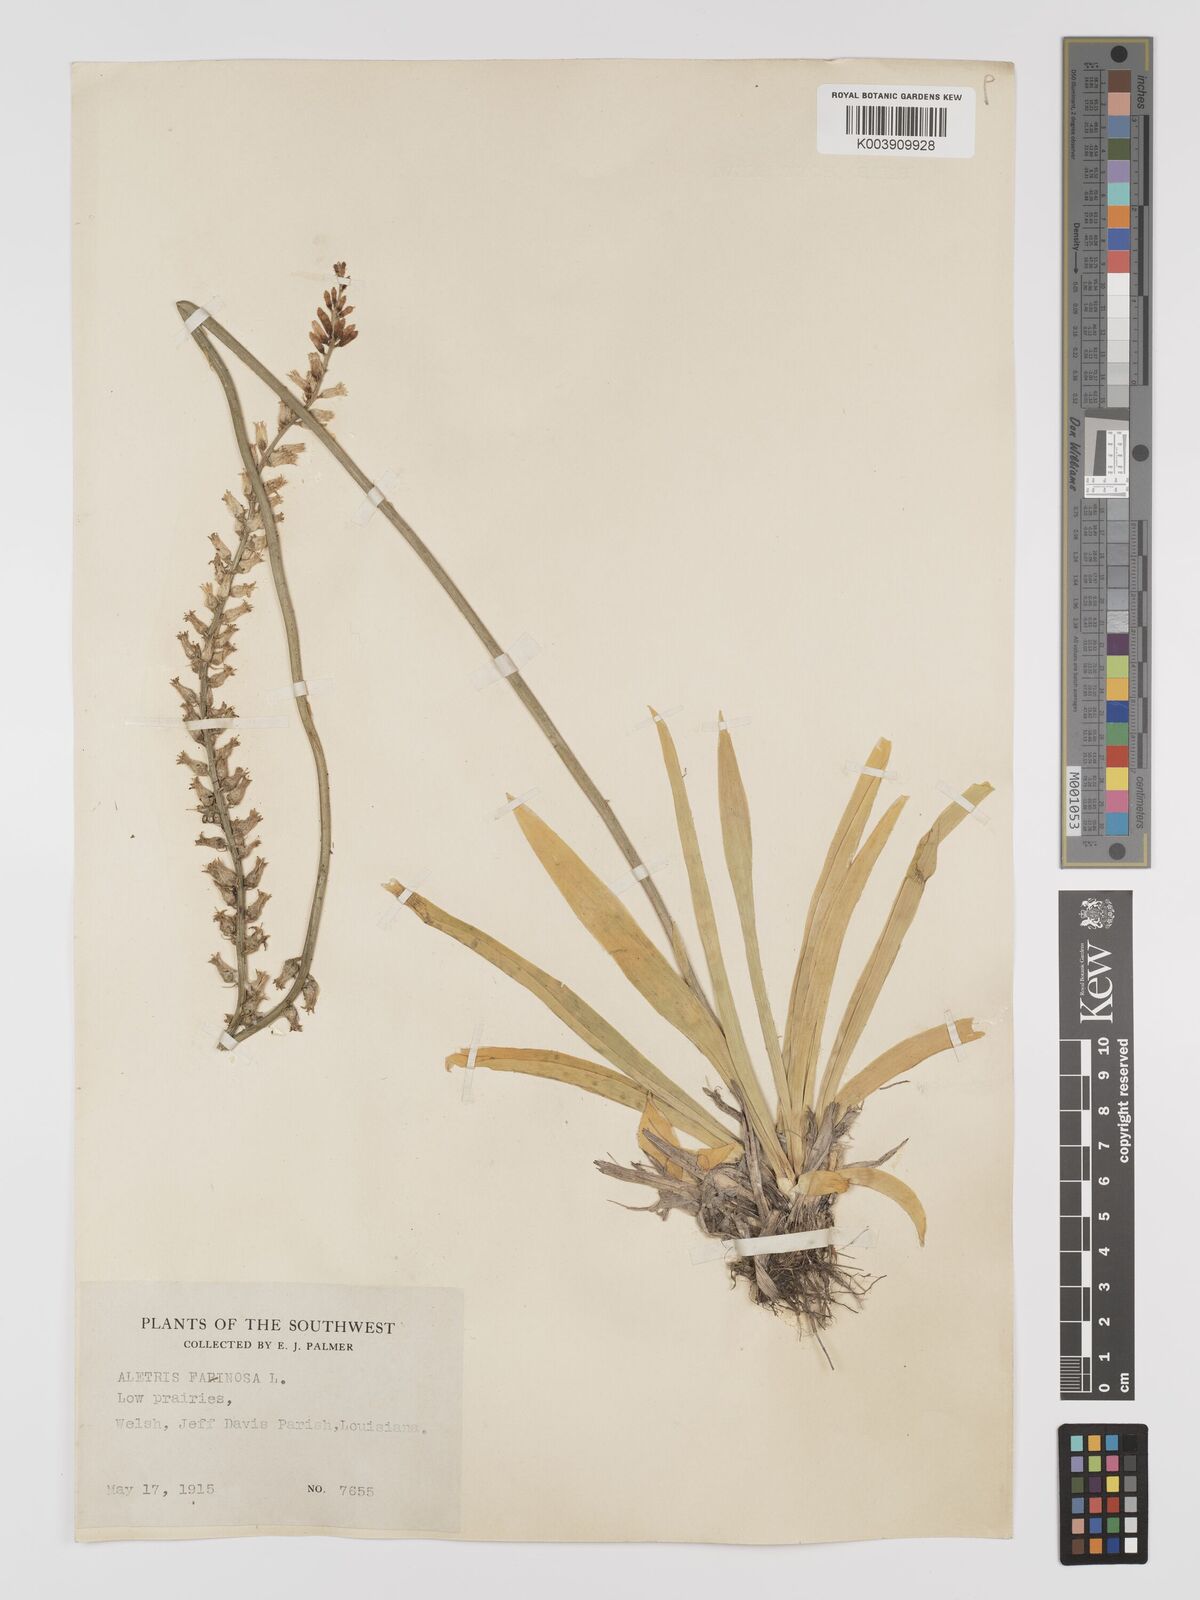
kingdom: Plantae
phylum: Tracheophyta
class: Liliopsida
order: Dioscoreales
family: Nartheciaceae
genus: Aletris
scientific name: Aletris farinosa
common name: Colicroot
